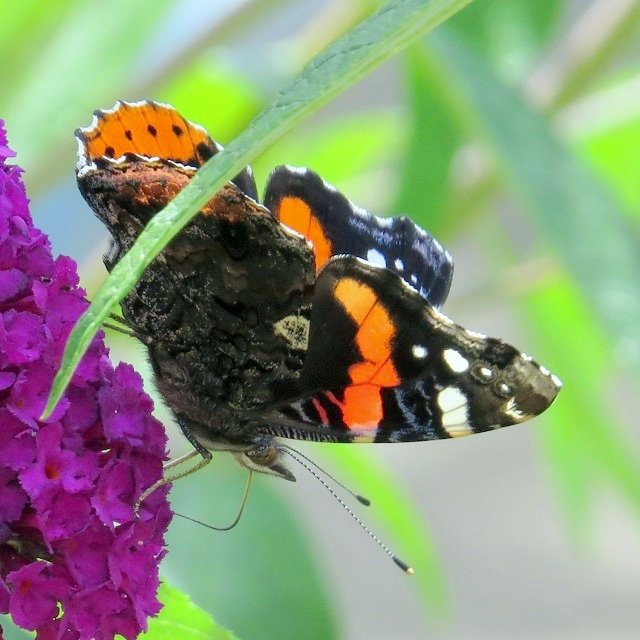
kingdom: Animalia
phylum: Arthropoda
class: Insecta
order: Lepidoptera
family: Nymphalidae
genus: Vanessa
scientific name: Vanessa atalanta
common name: Red Admiral
